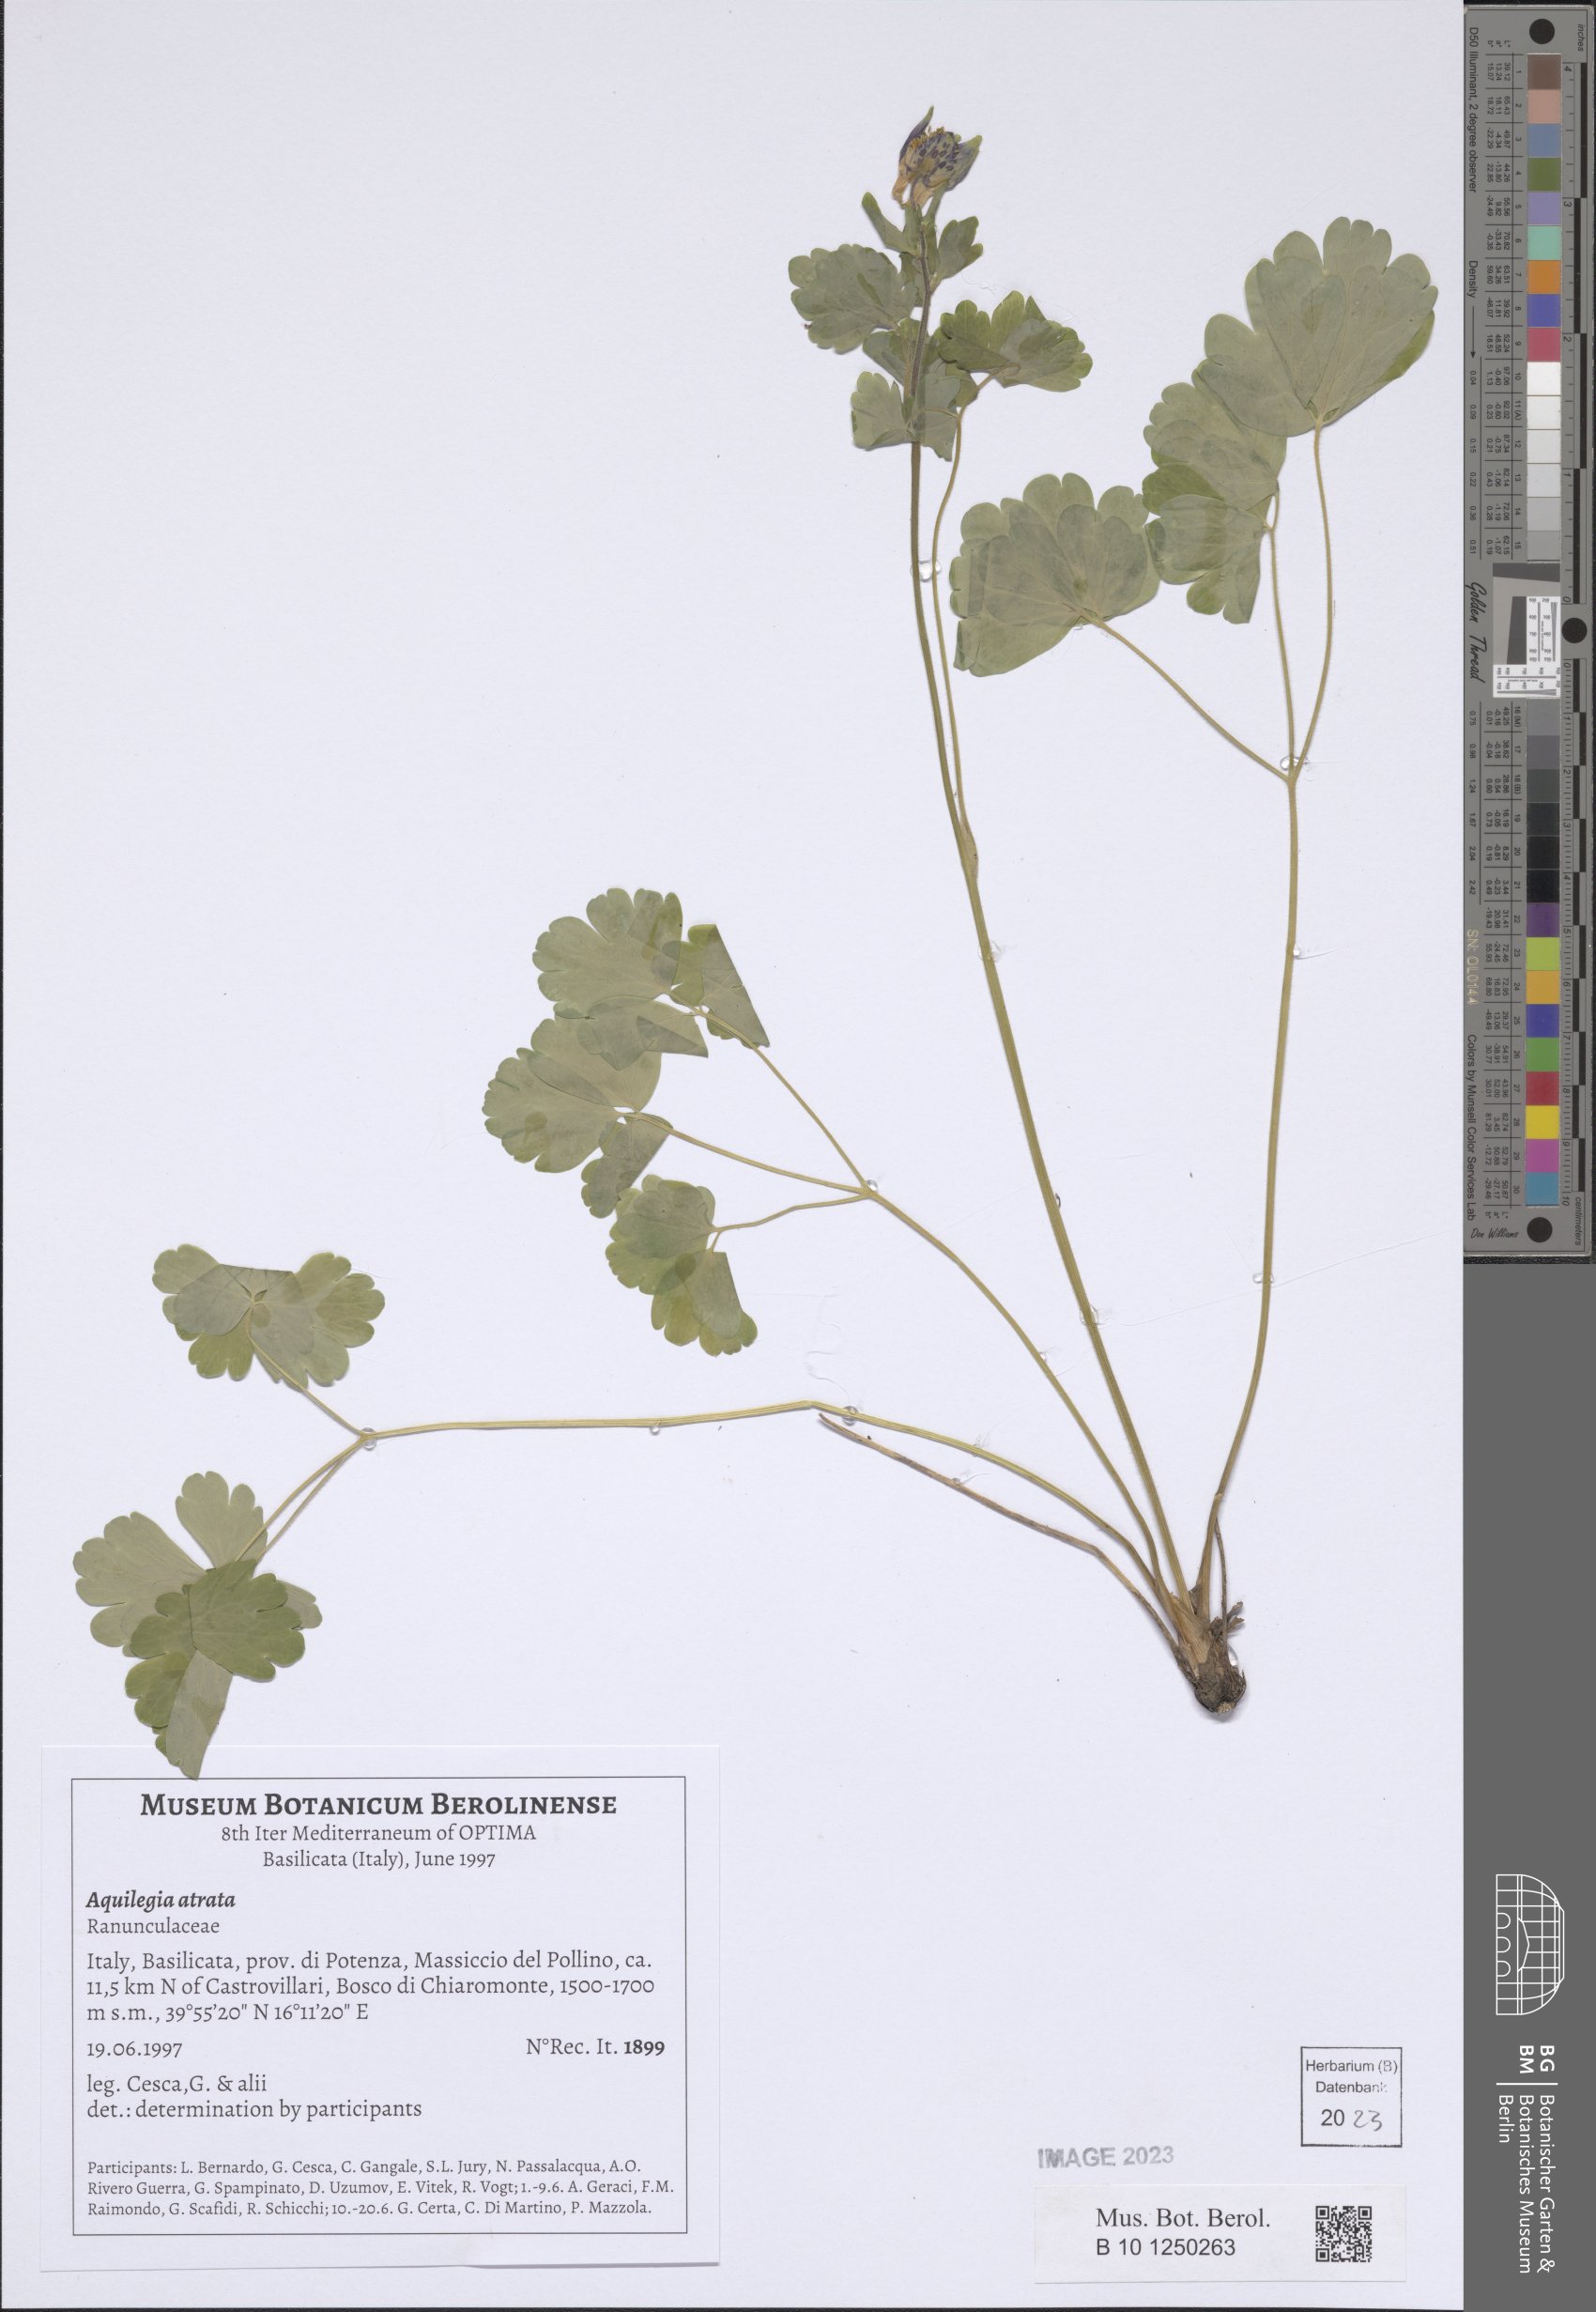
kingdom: Plantae
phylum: Tracheophyta
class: Magnoliopsida
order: Ranunculales
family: Ranunculaceae
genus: Aquilegia
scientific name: Aquilegia atrata
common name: Dark columbine
